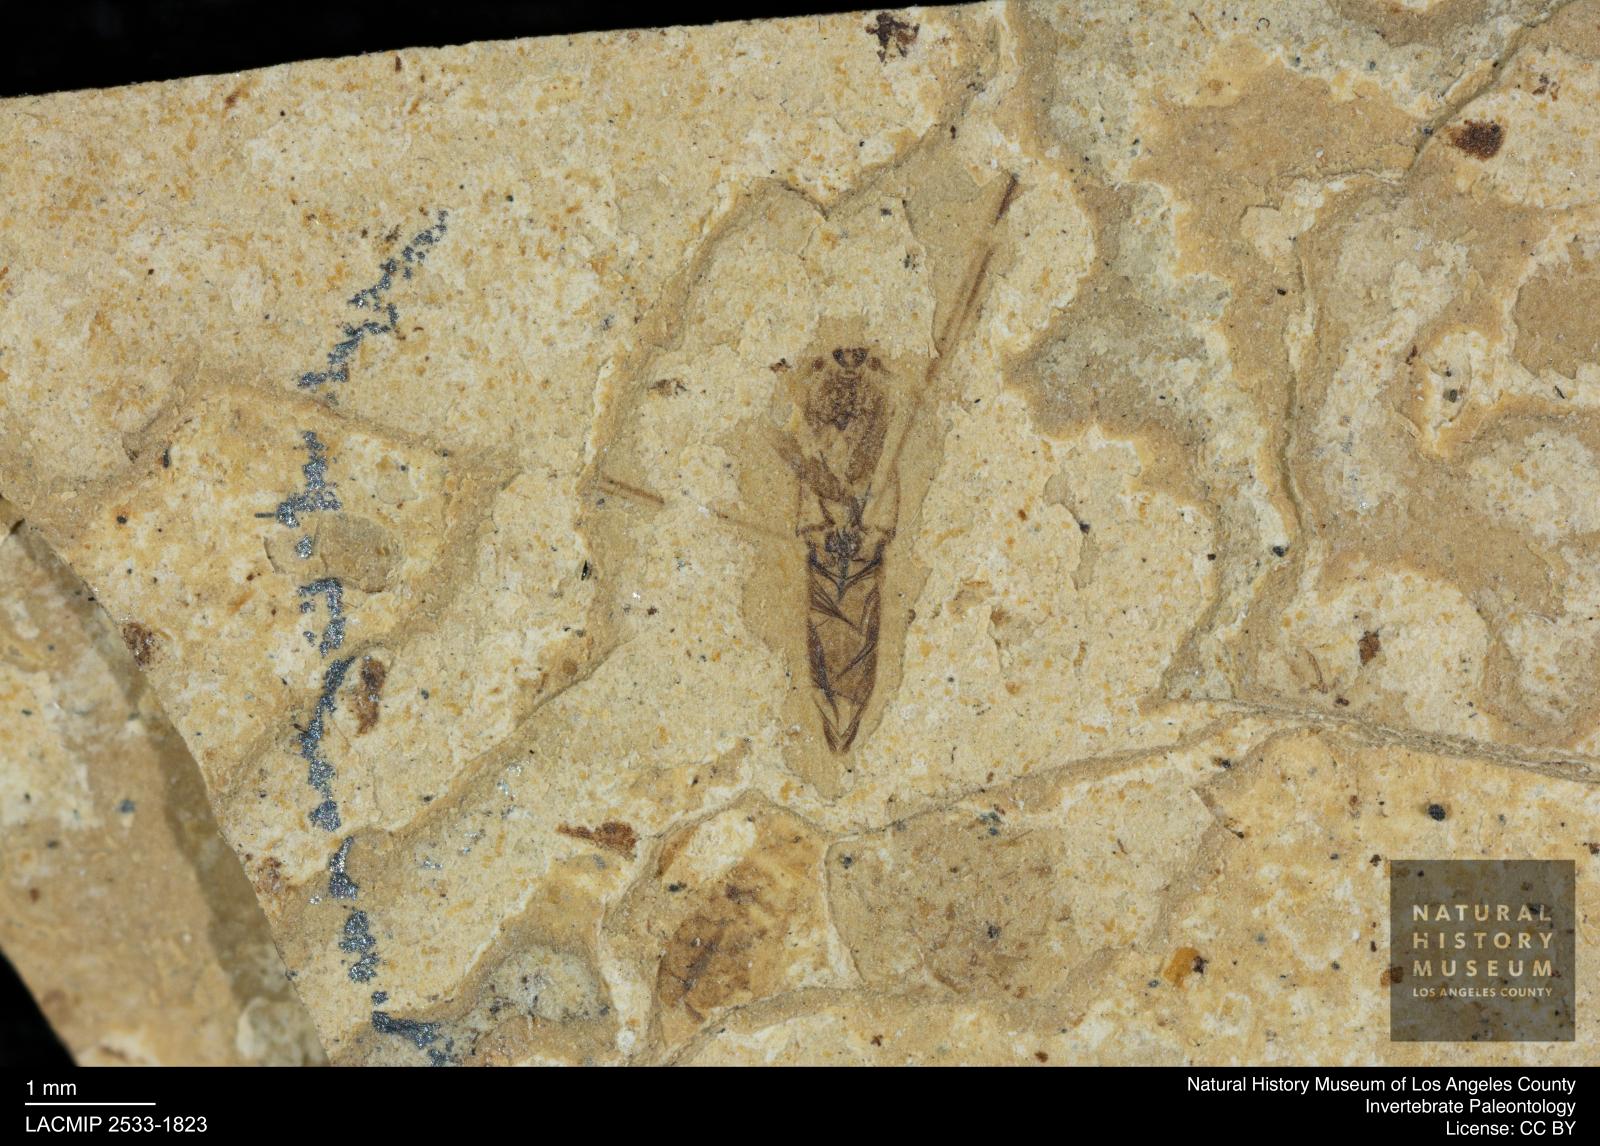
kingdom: Animalia
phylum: Arthropoda
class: Insecta
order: Hemiptera
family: Notonectidae
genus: Notonecta
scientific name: Notonecta
